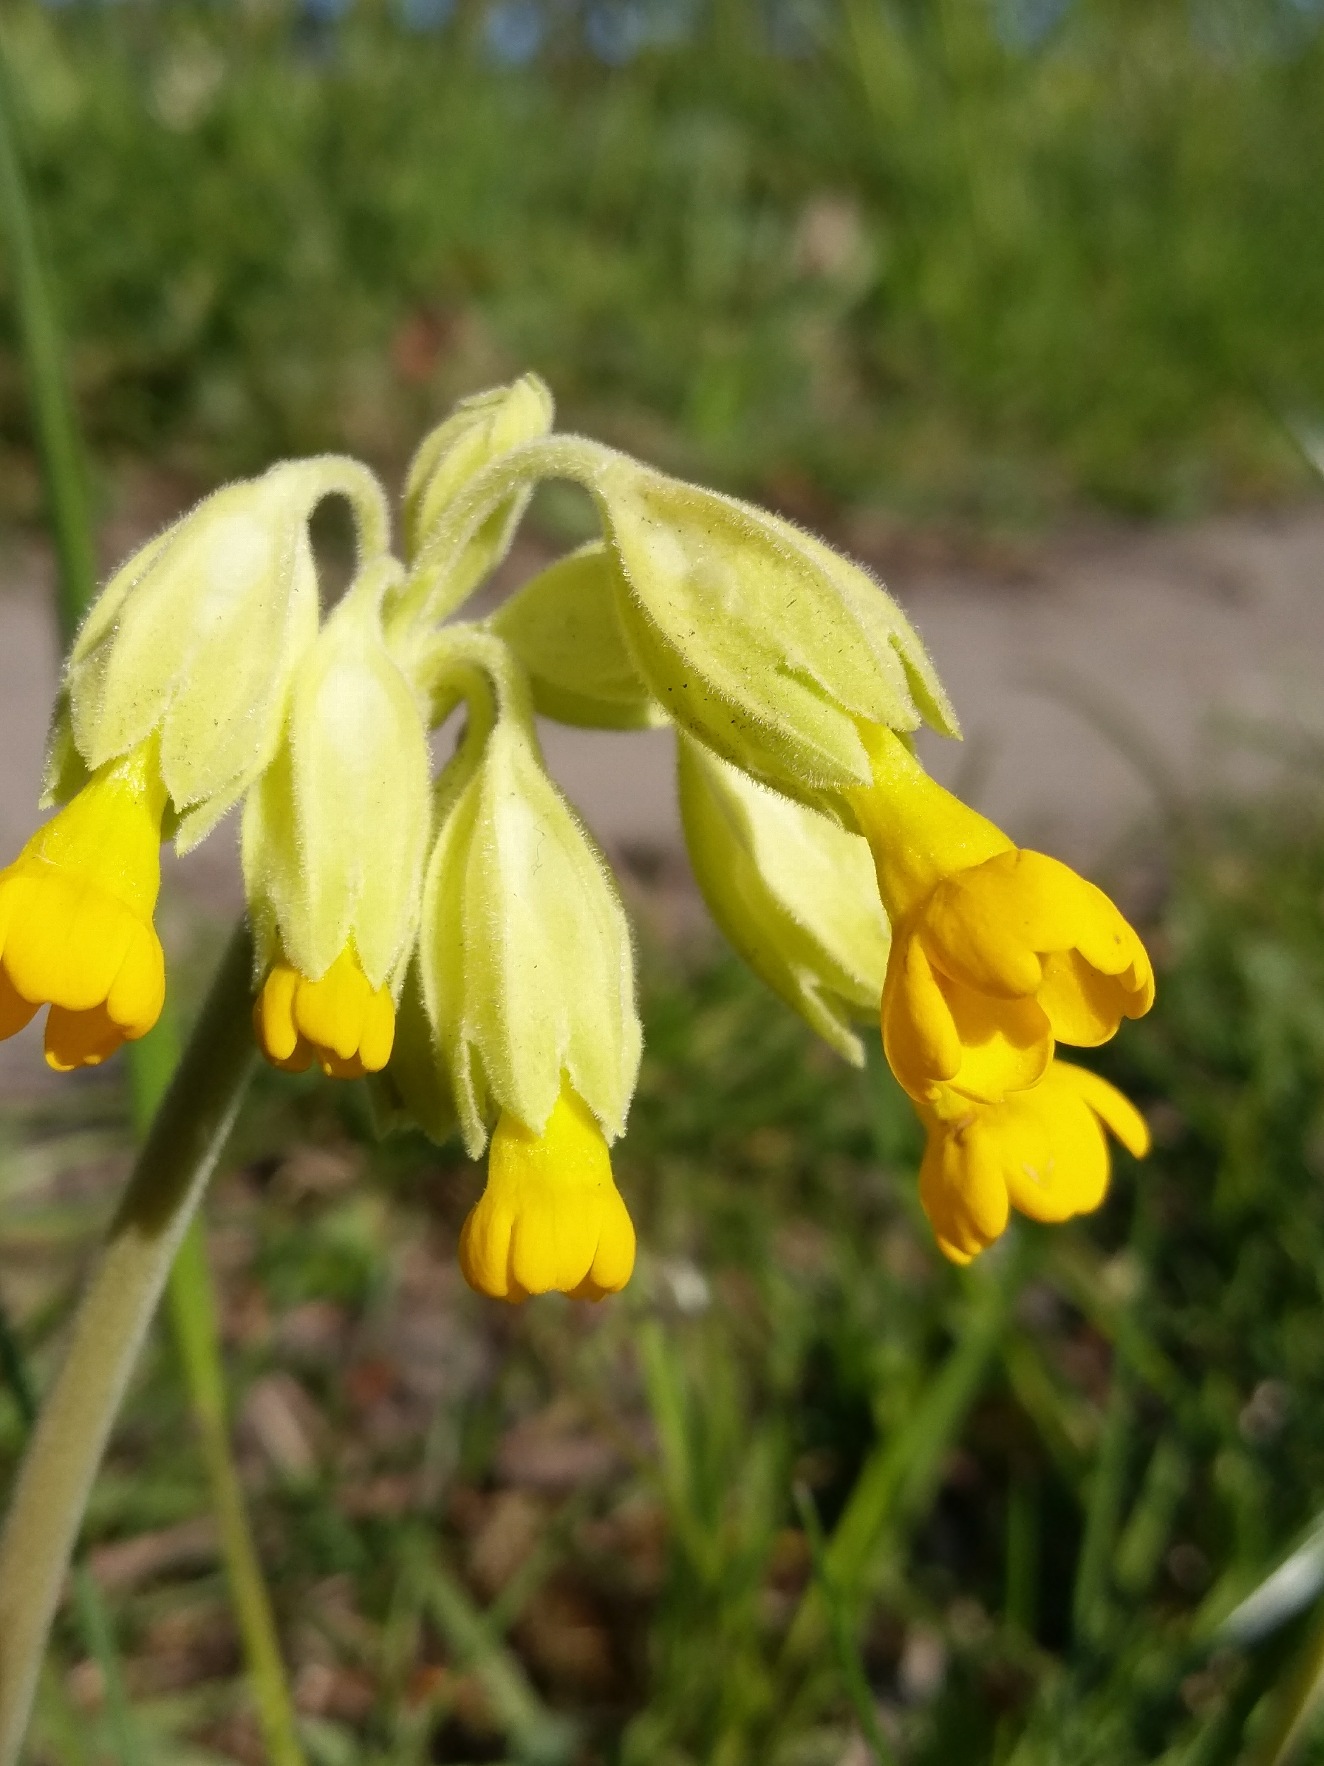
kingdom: Plantae
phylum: Tracheophyta
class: Magnoliopsida
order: Ericales
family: Primulaceae
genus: Primula
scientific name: Primula veris
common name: Hulkravet kodriver
